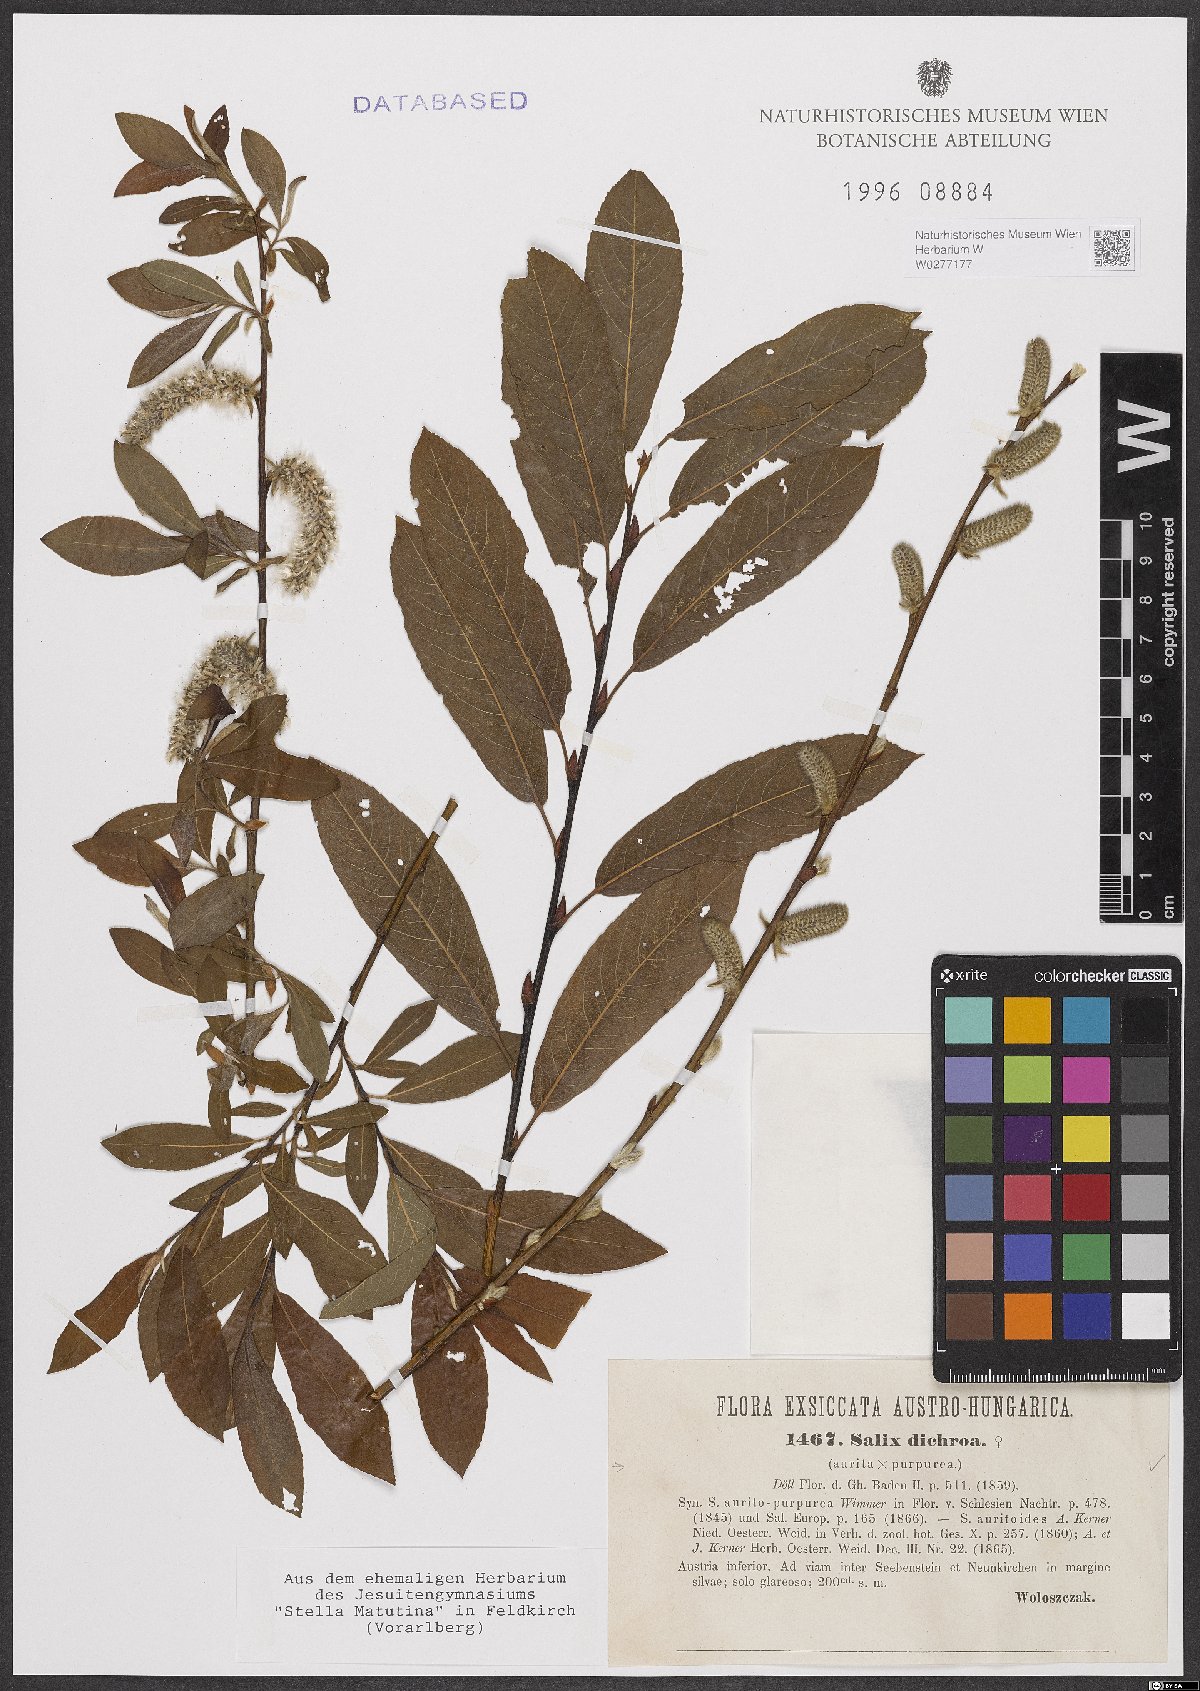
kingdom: Plantae
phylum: Tracheophyta
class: Magnoliopsida
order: Malpighiales
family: Salicaceae
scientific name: Salicaceae
